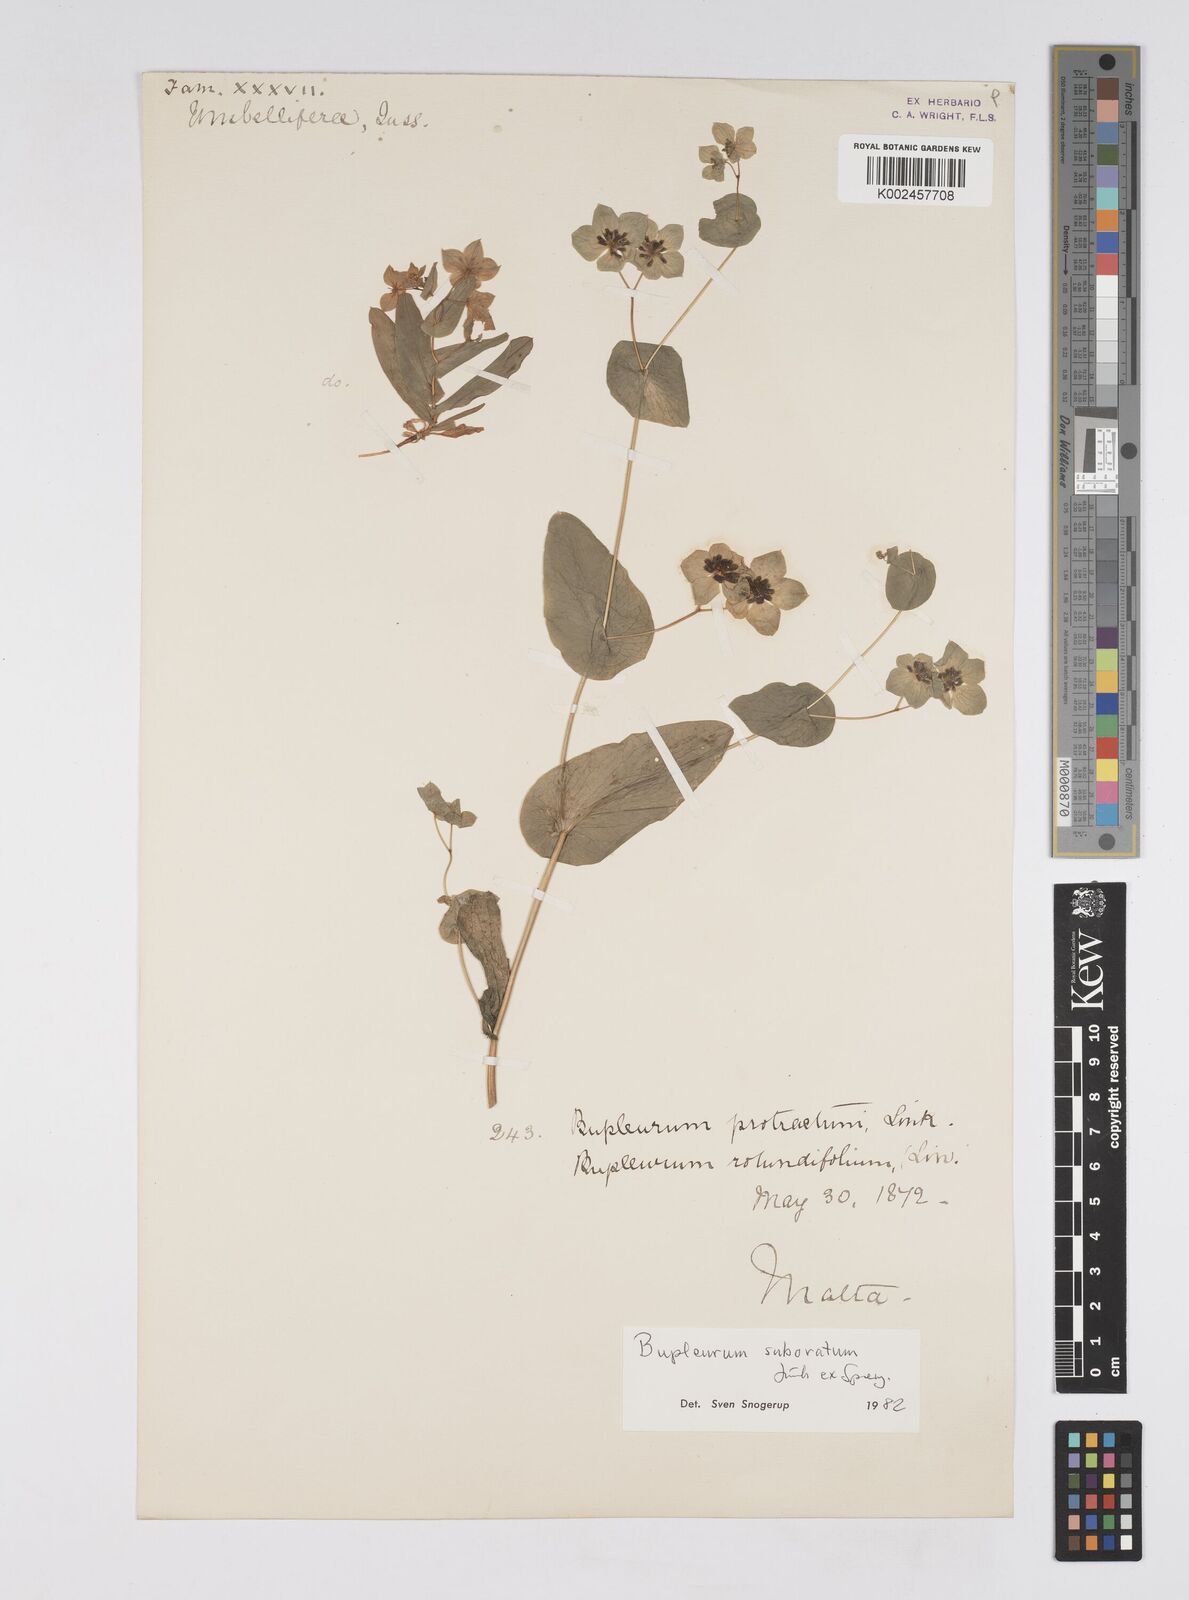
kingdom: Plantae
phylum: Tracheophyta
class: Magnoliopsida
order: Apiales
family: Apiaceae
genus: Bupleurum
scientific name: Bupleurum lancifolium
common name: False thorow-wax
